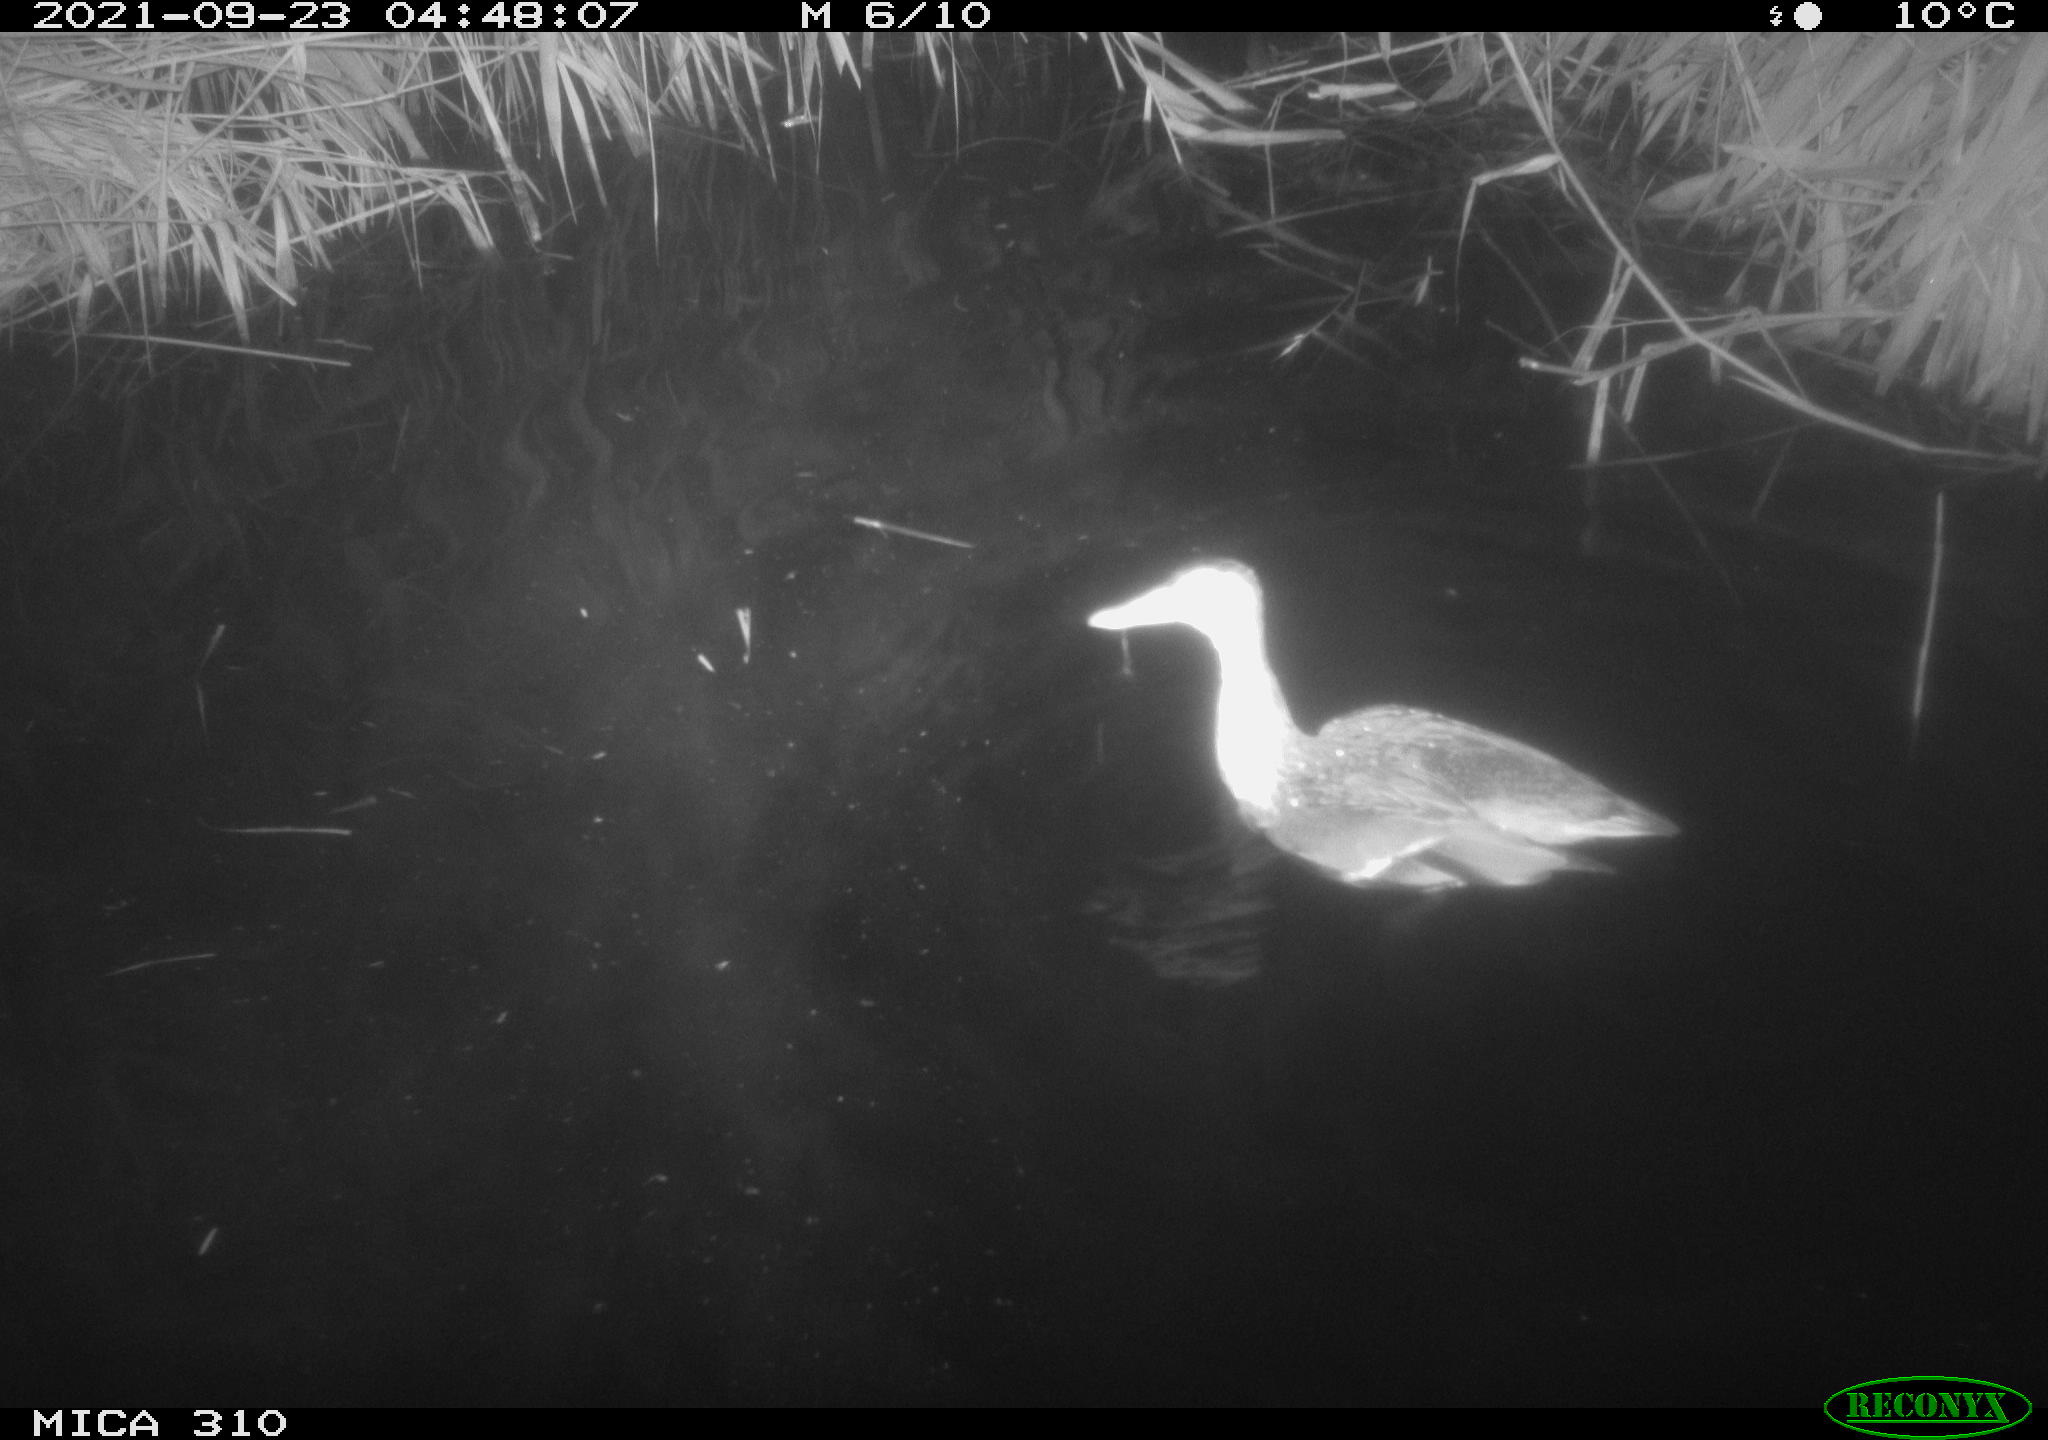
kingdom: Animalia
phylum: Chordata
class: Aves
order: Anseriformes
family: Anatidae
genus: Mareca
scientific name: Mareca strepera
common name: Gadwall
